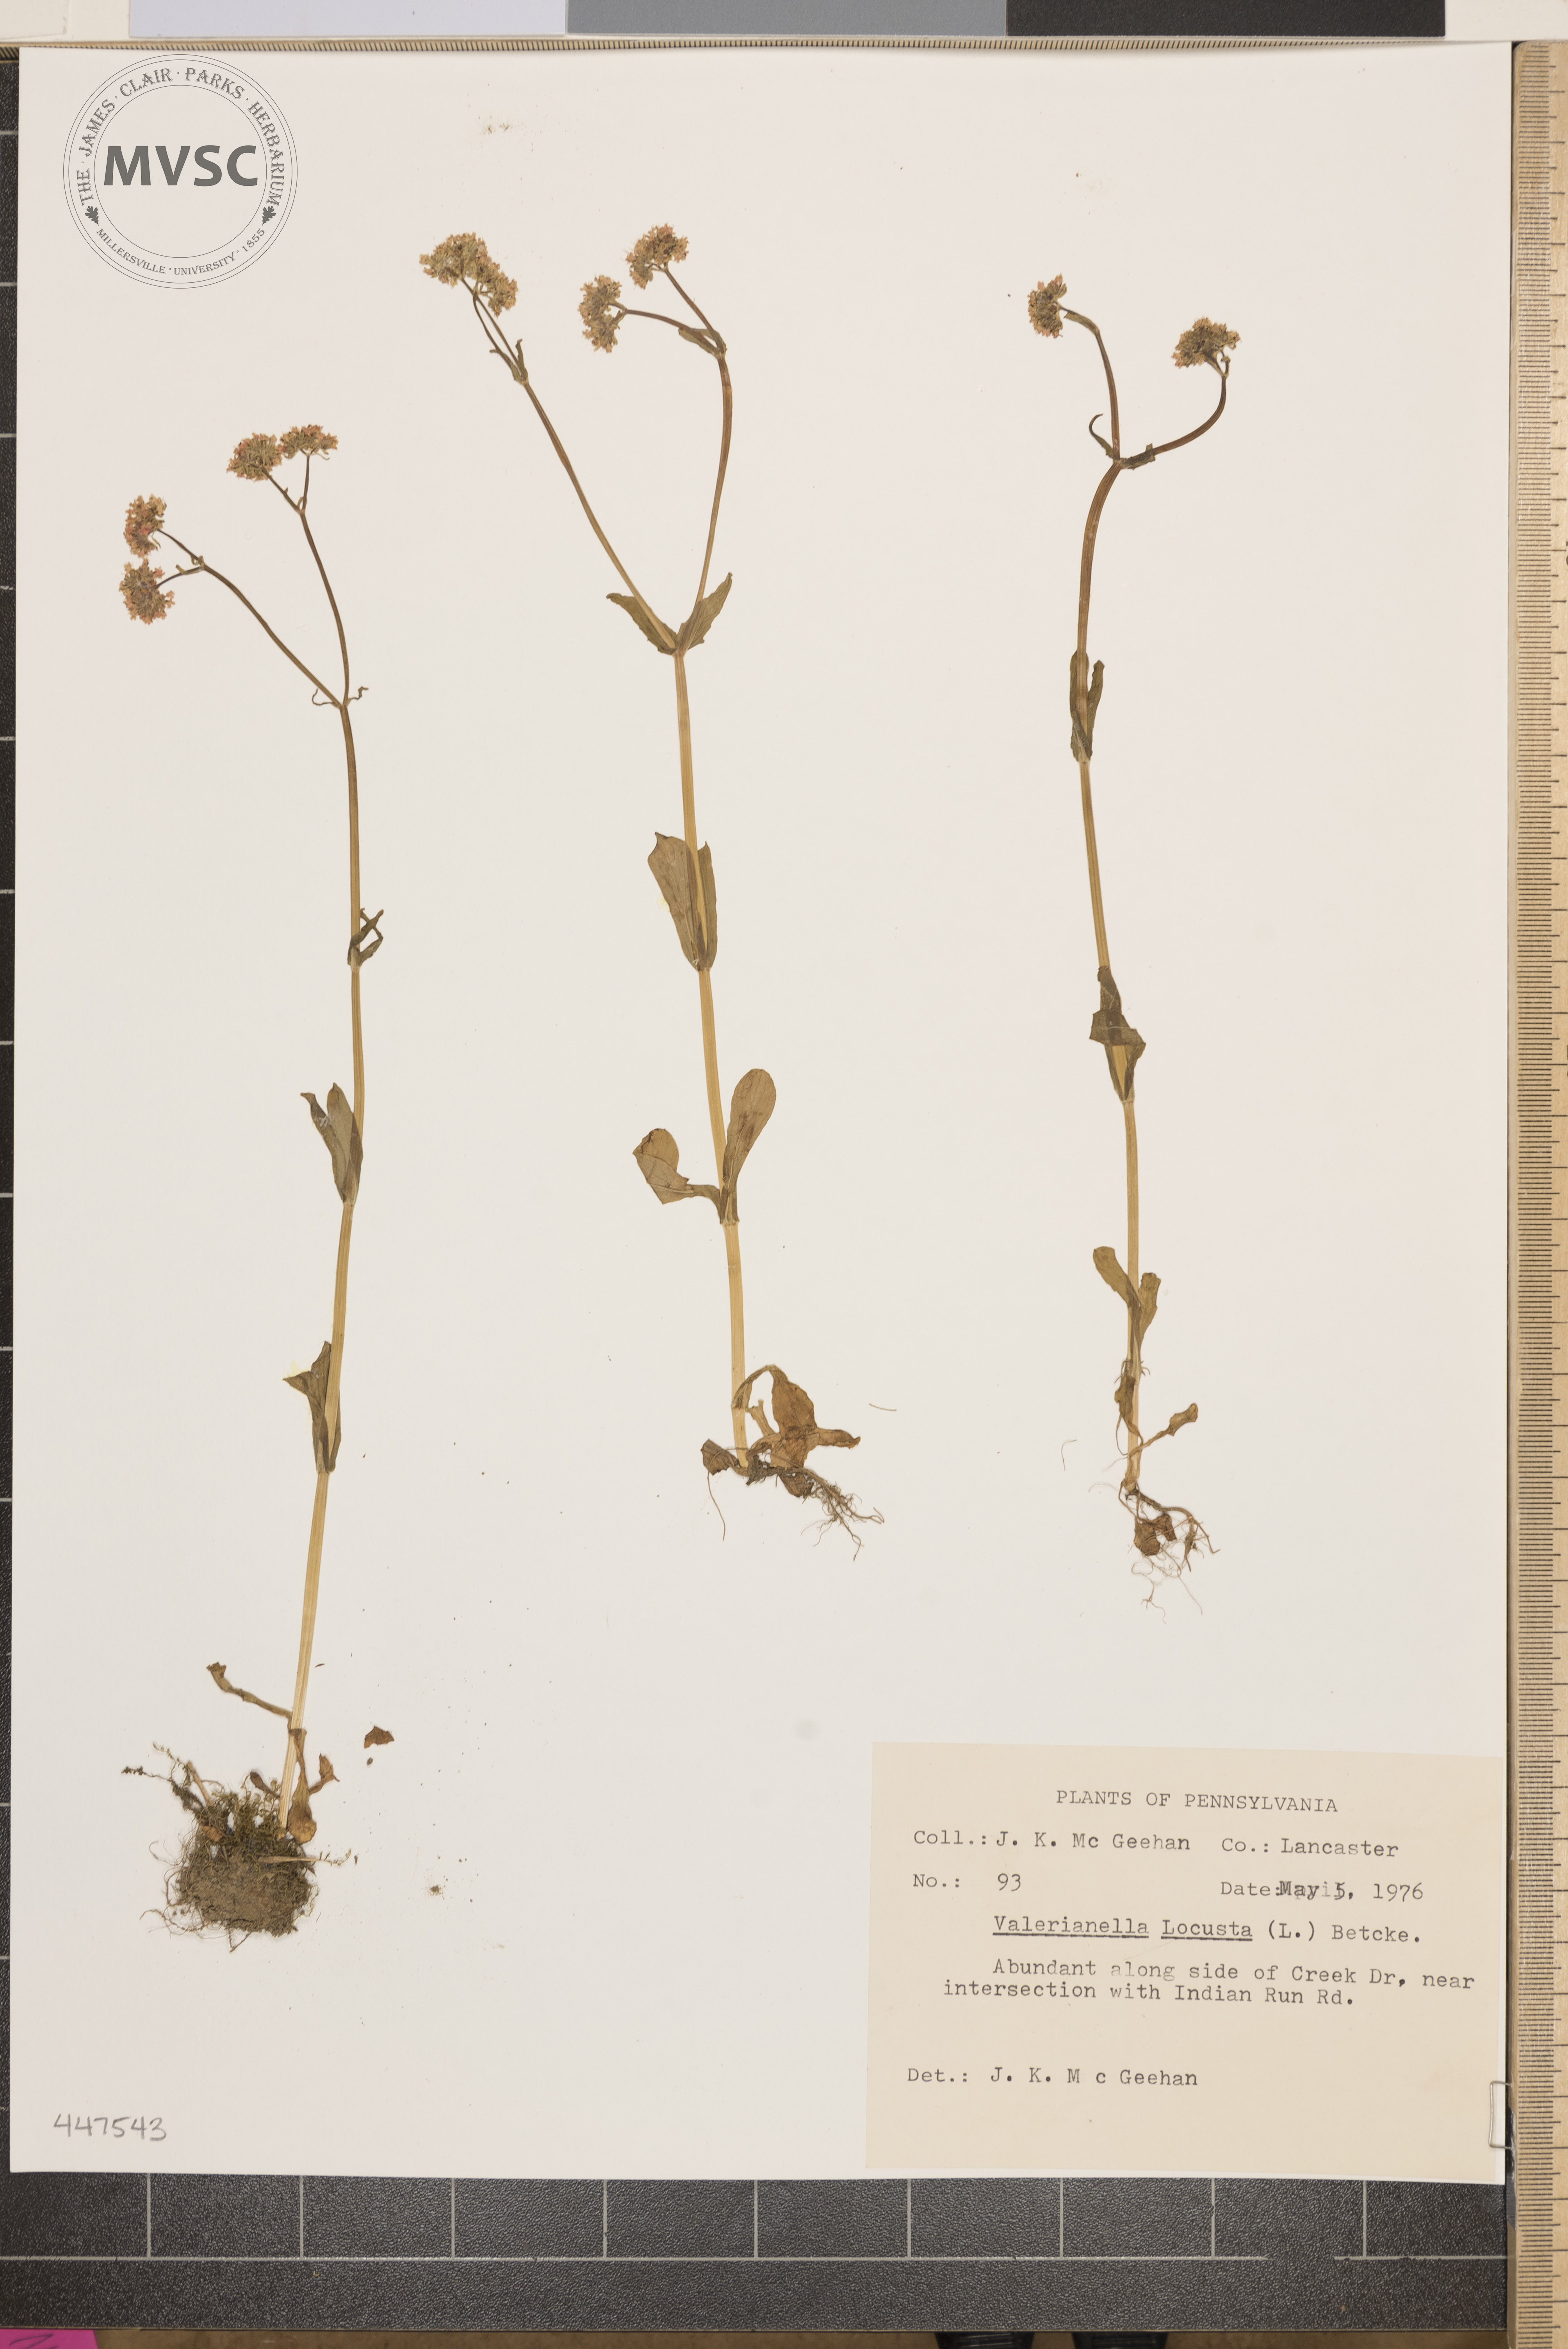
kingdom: Plantae
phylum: Tracheophyta
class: Magnoliopsida
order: Dipsacales
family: Caprifoliaceae
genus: Valerianella
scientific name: Valerianella locusta
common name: Common cornsalad
